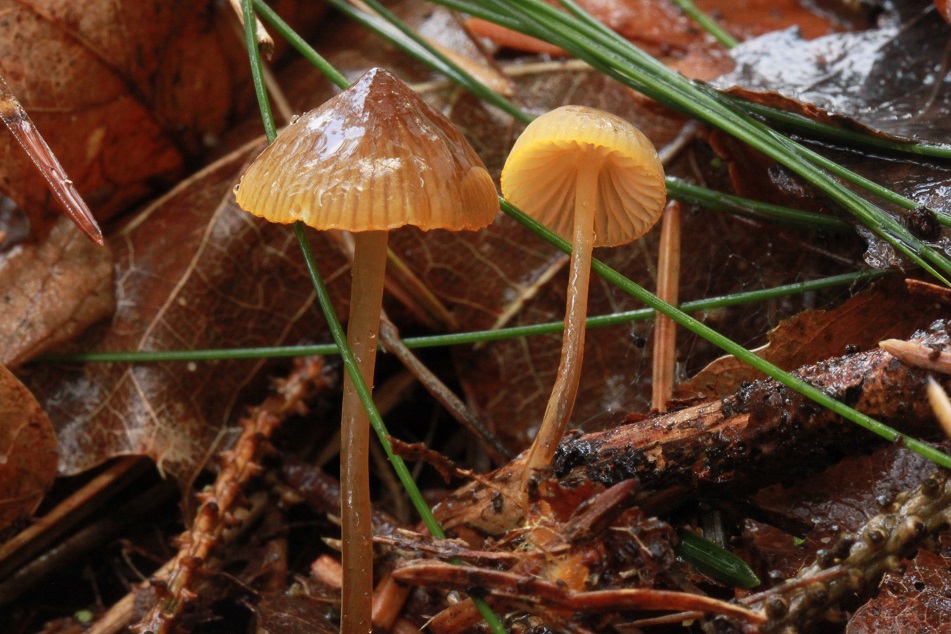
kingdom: Fungi
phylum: Basidiomycota
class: Agaricomycetes
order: Agaricales
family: Mycenaceae
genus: Mycena
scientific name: Mycena aurantiomarginata
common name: orangeægget huesvamp
